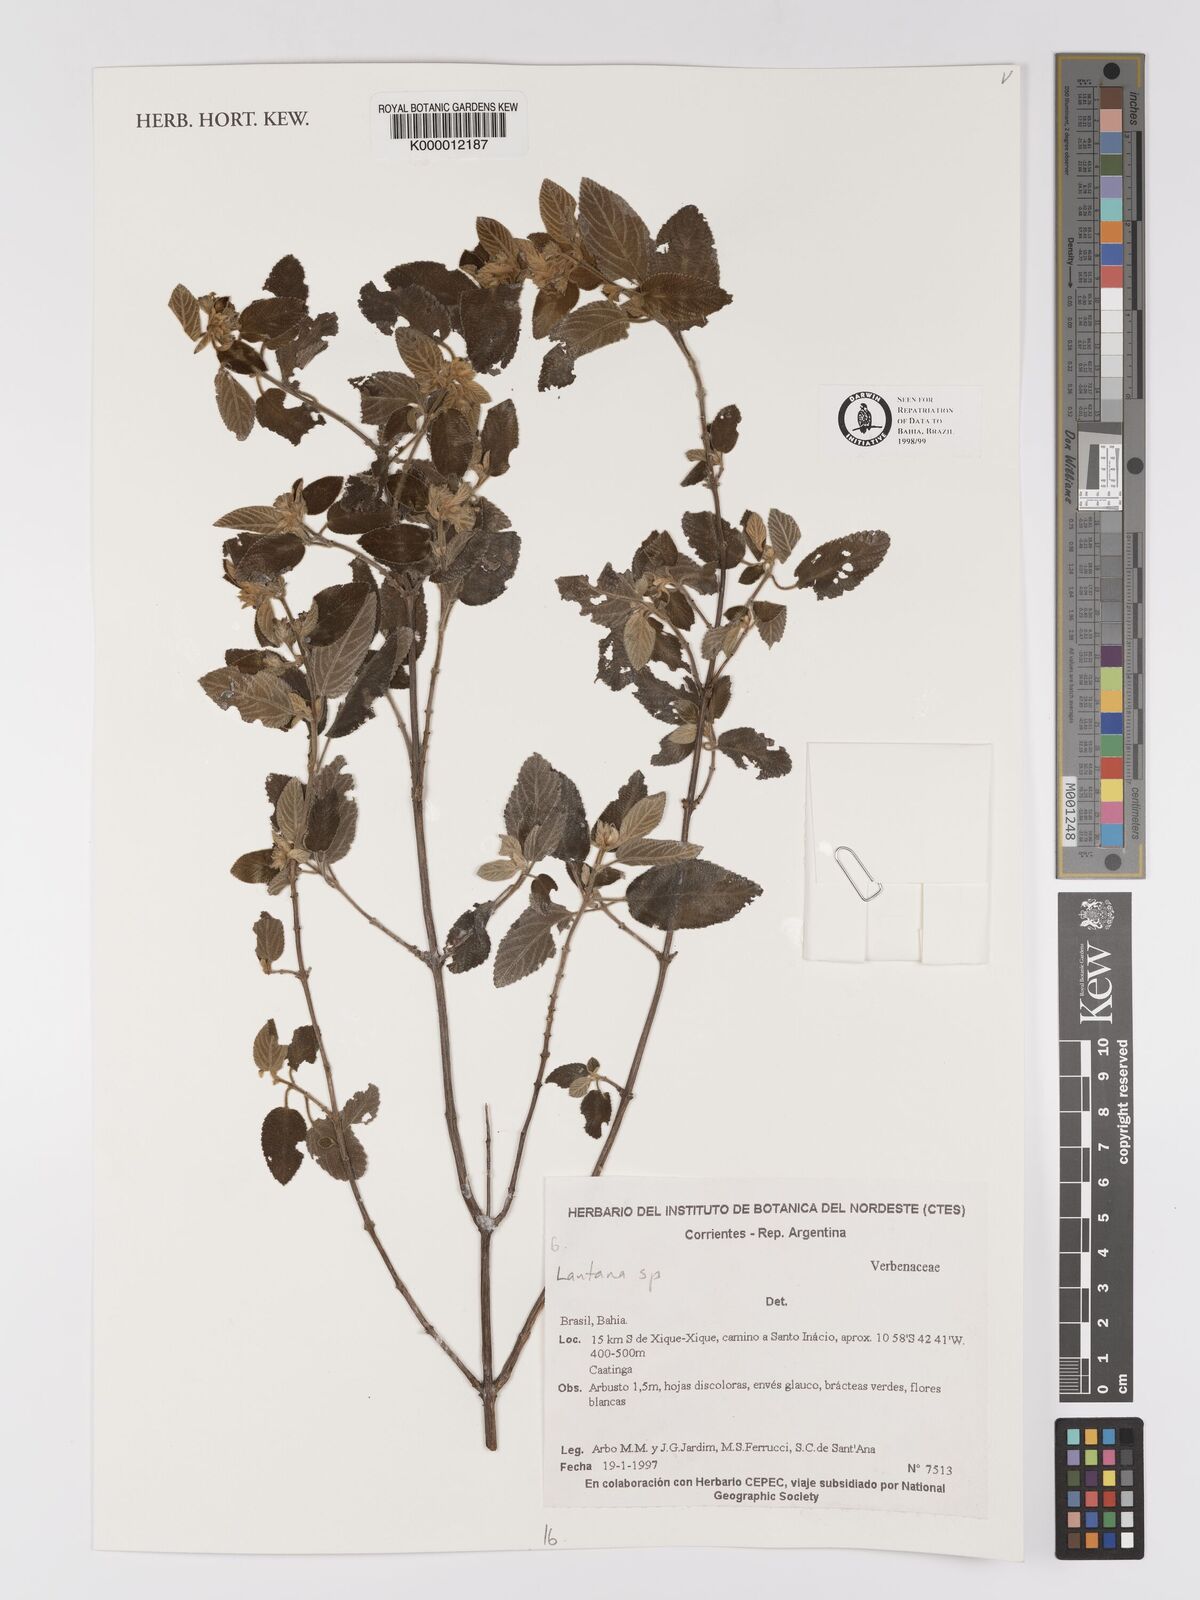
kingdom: Plantae
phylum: Tracheophyta
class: Magnoliopsida
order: Lamiales
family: Verbenaceae
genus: Lippia
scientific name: Lippia
